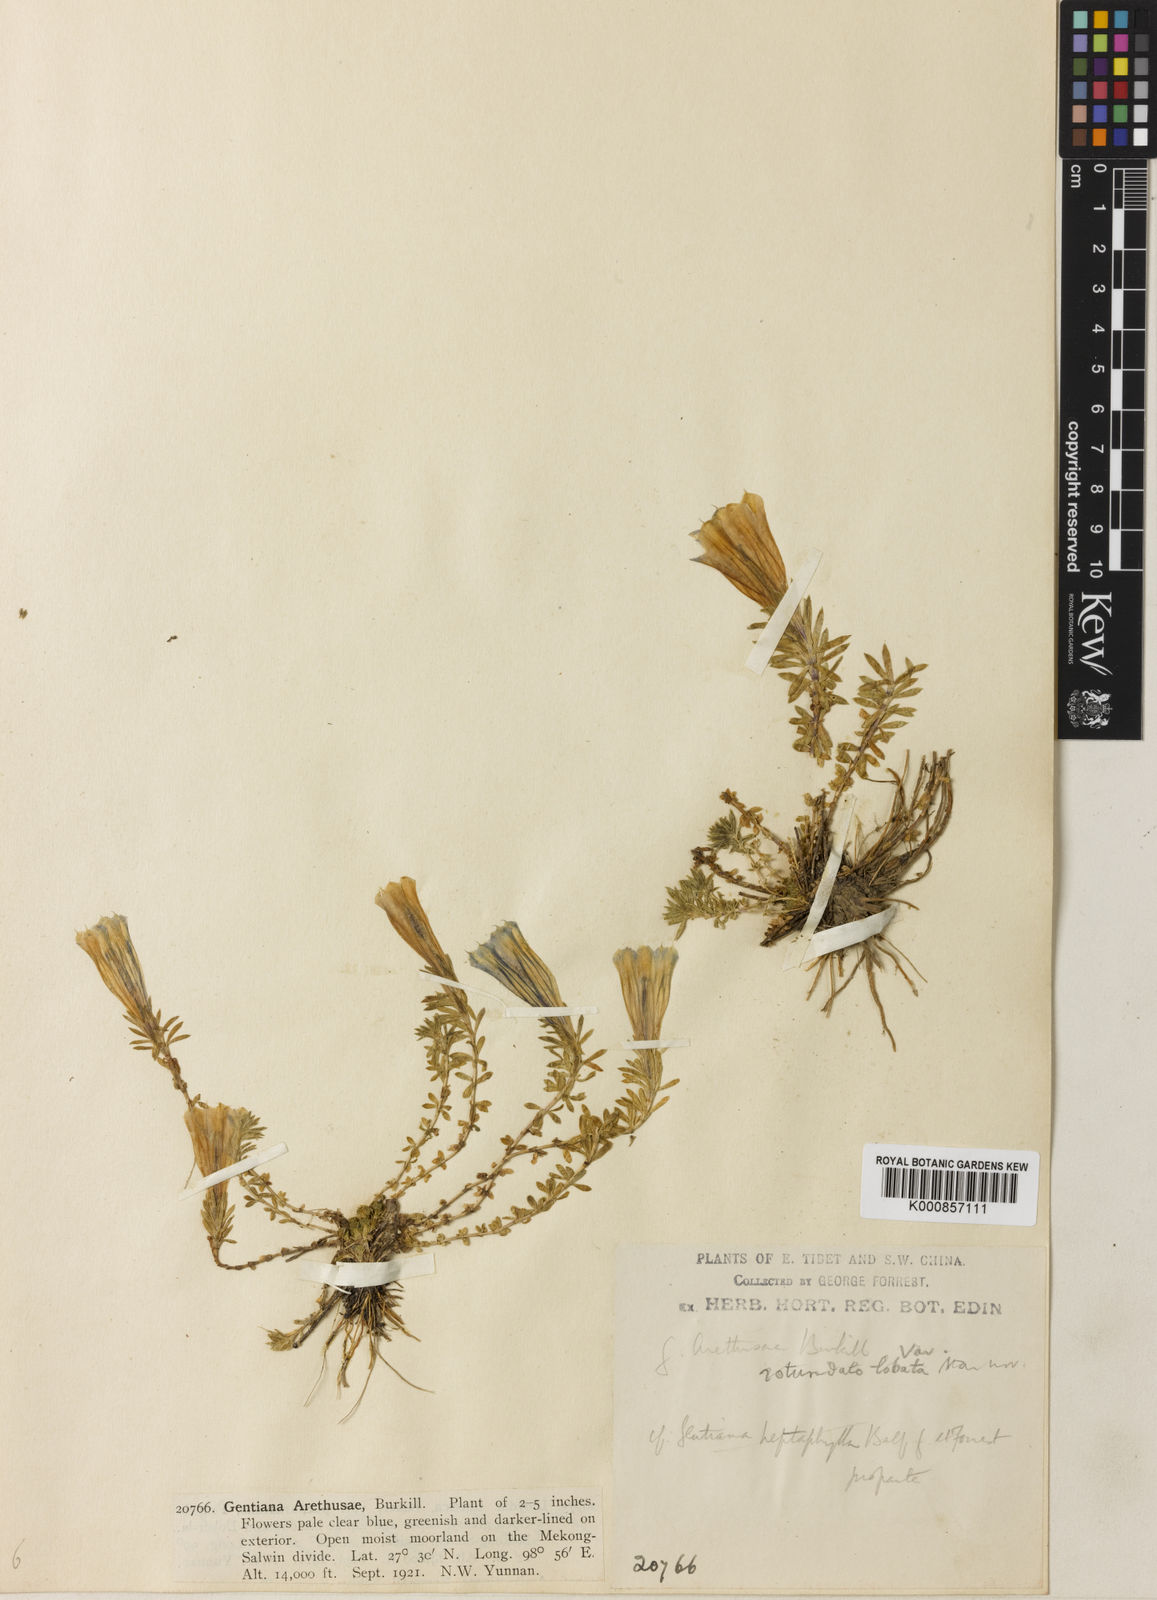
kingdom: Plantae
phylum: Tracheophyta
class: Magnoliopsida
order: Gentianales
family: Gentianaceae
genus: Gentiana
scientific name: Gentiana arethusae
